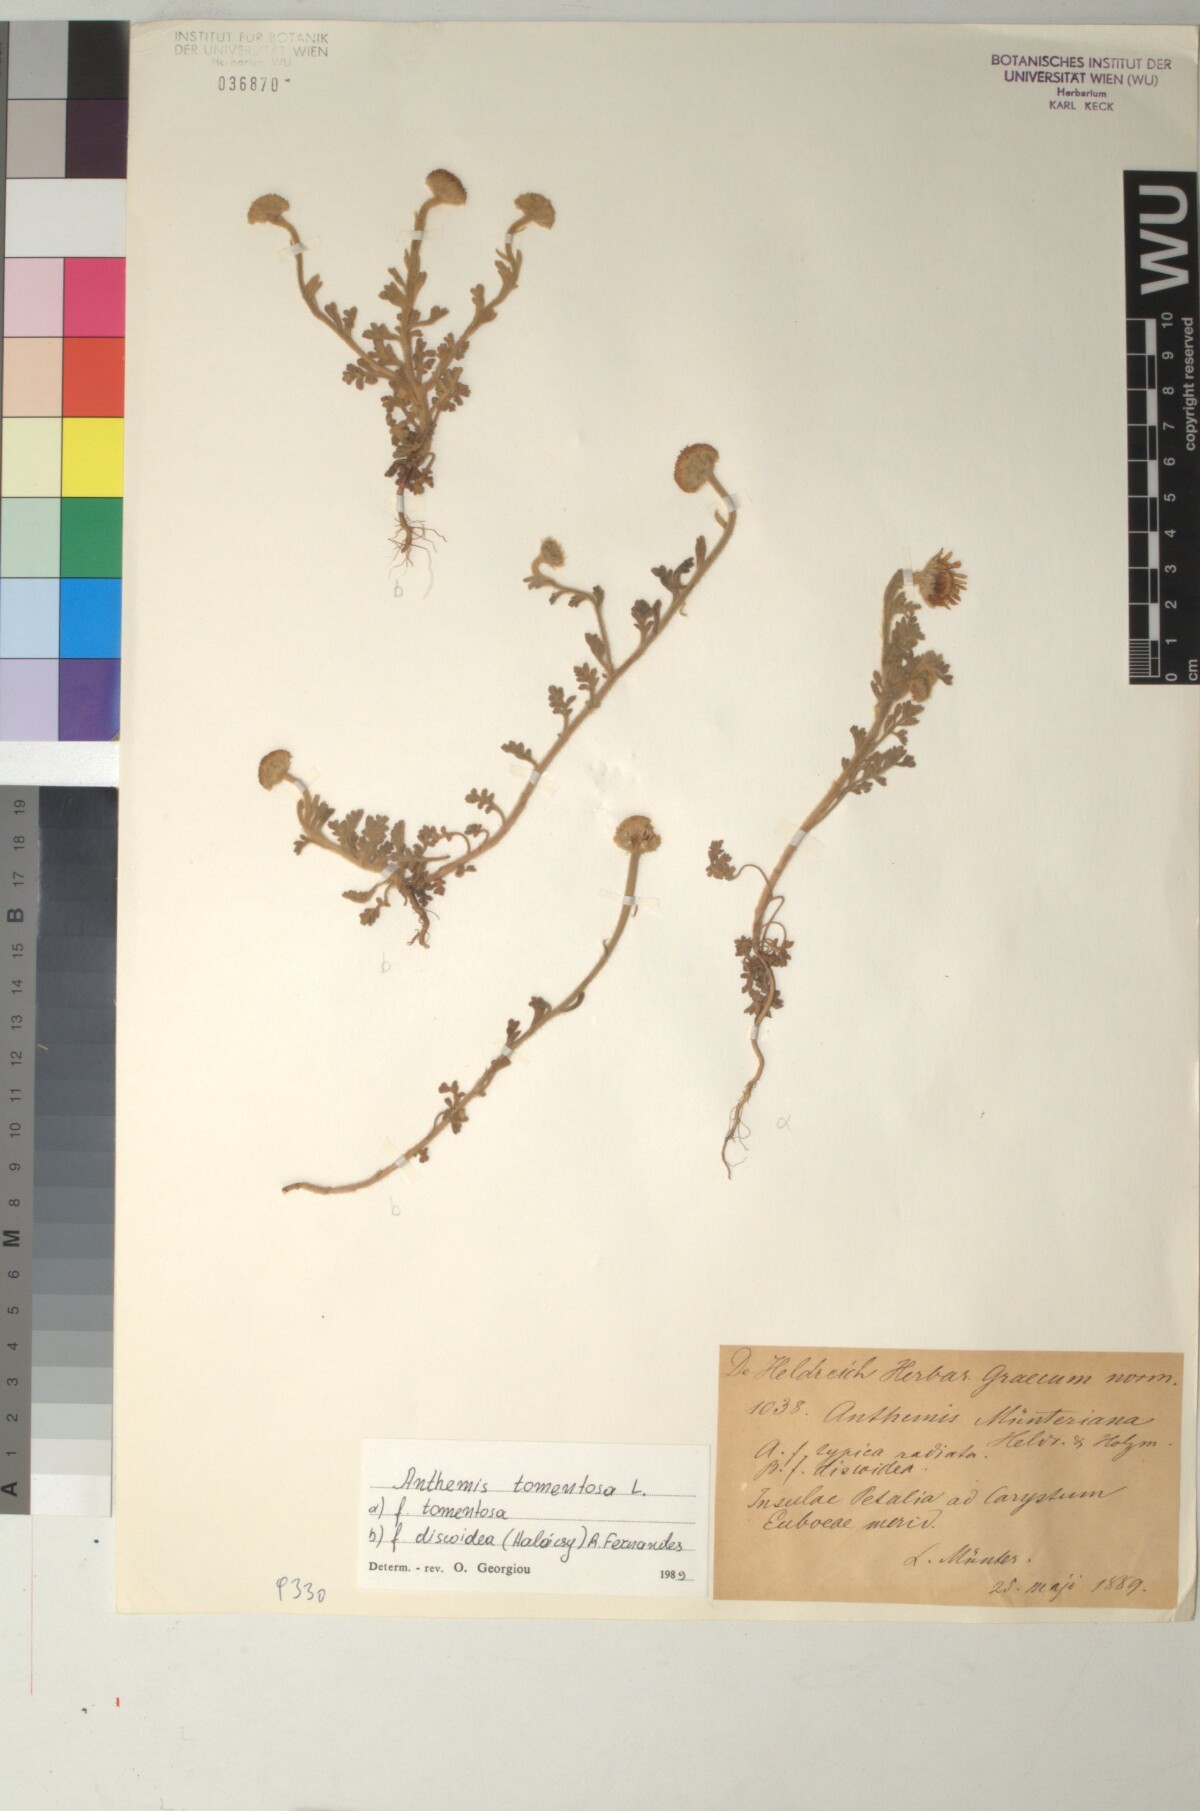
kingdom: Plantae
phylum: Tracheophyta
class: Magnoliopsida
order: Asterales
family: Asteraceae
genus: Anthemis
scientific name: Anthemis tomentosa
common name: Woolly chamomile
